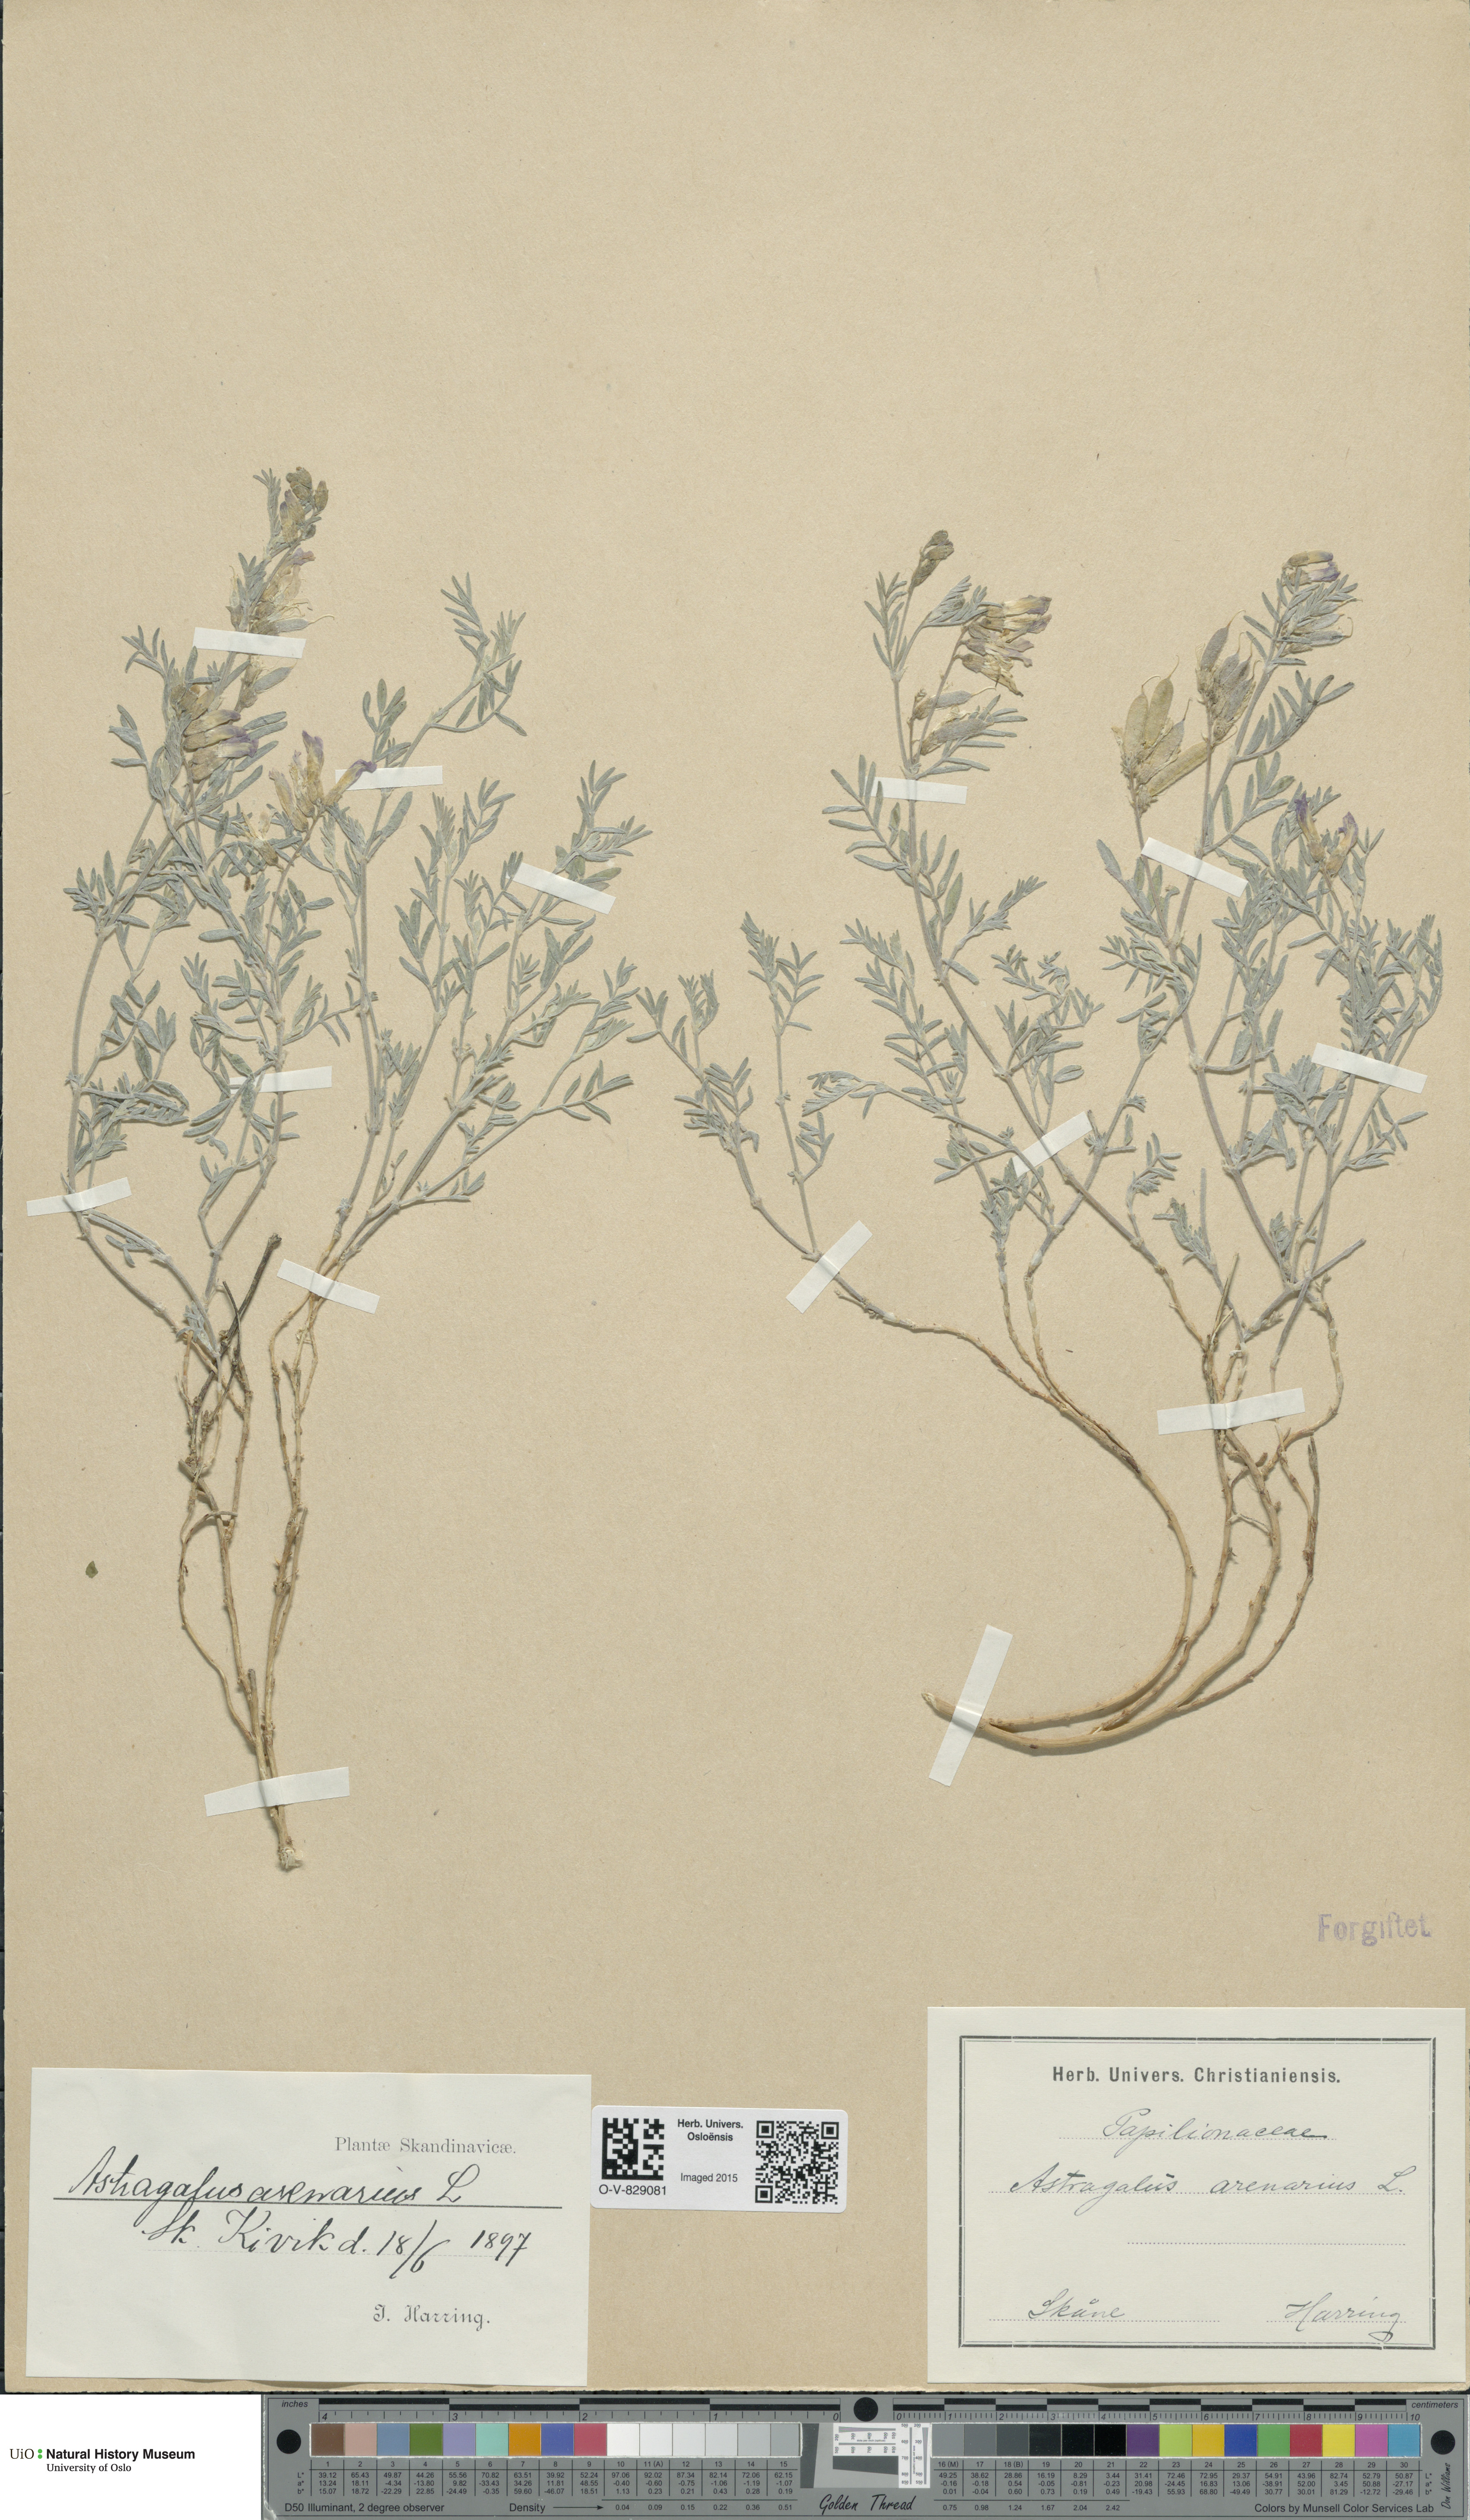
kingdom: Plantae
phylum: Tracheophyta
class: Magnoliopsida
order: Fabales
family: Fabaceae
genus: Astragalus
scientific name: Astragalus arenarius
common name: Arenarious milk-vetch
